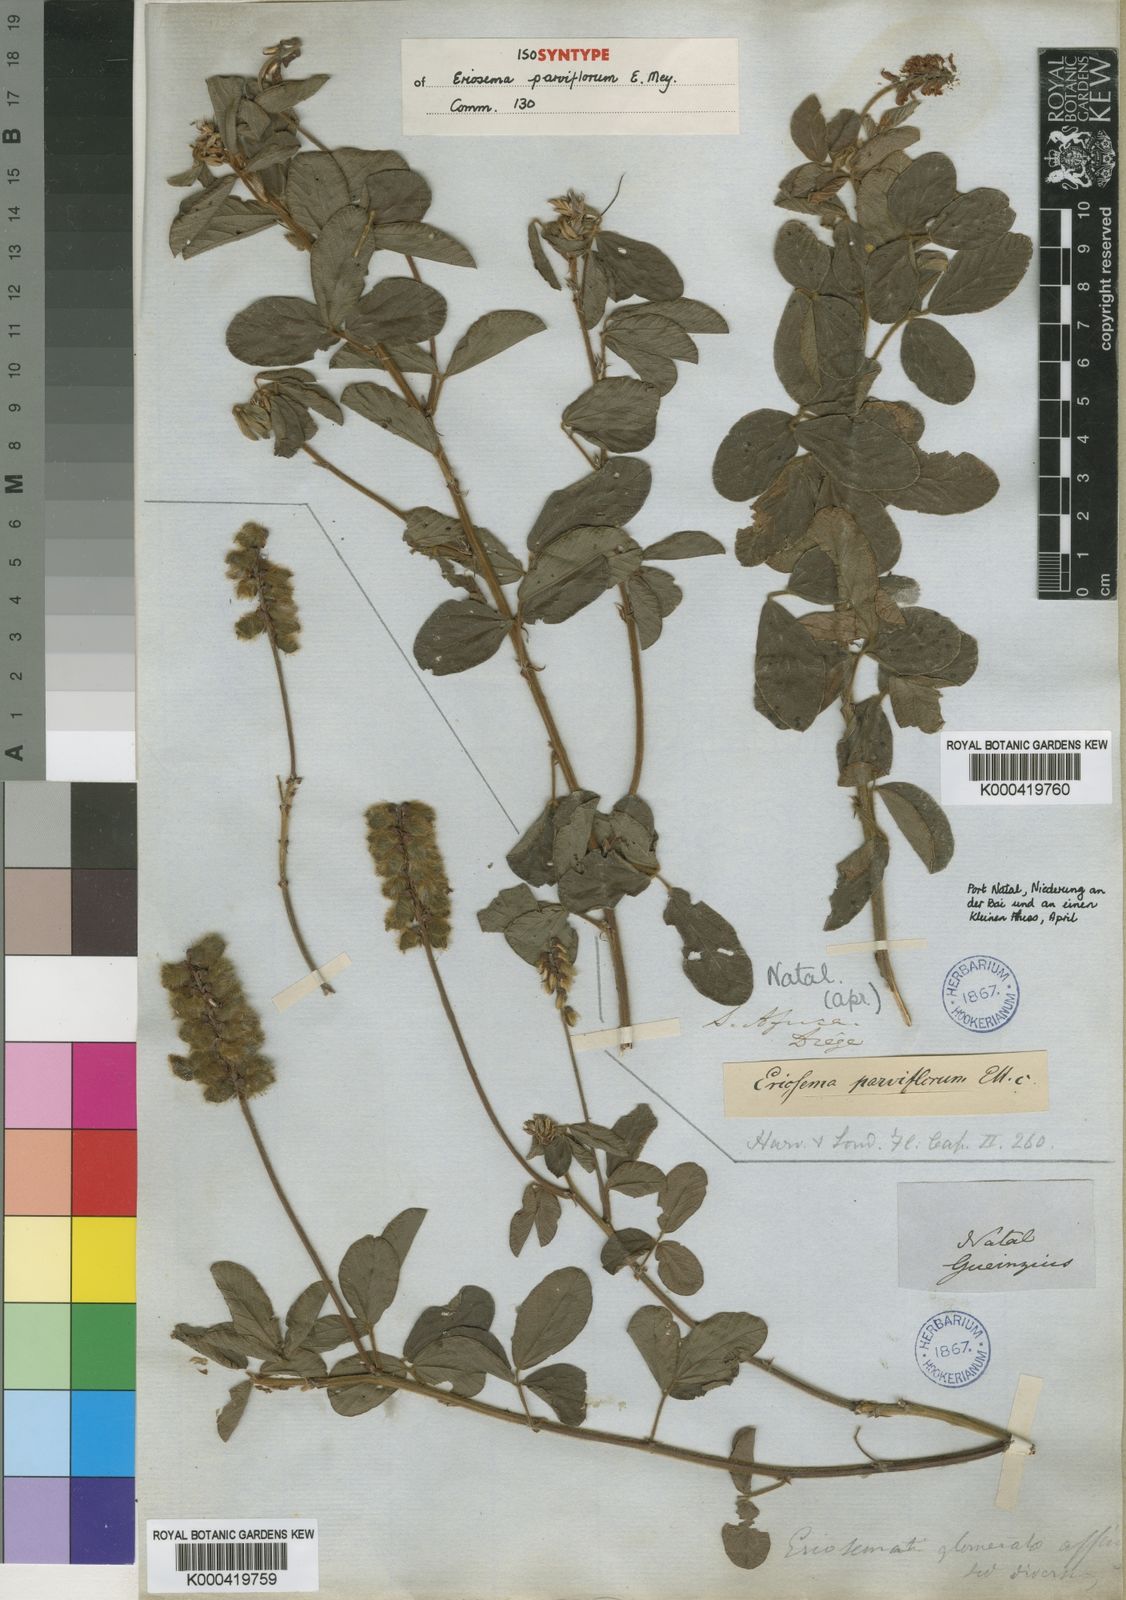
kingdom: Plantae
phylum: Tracheophyta
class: Magnoliopsida
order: Fabales
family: Fabaceae
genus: Eriosema
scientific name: Eriosema parviflorum
